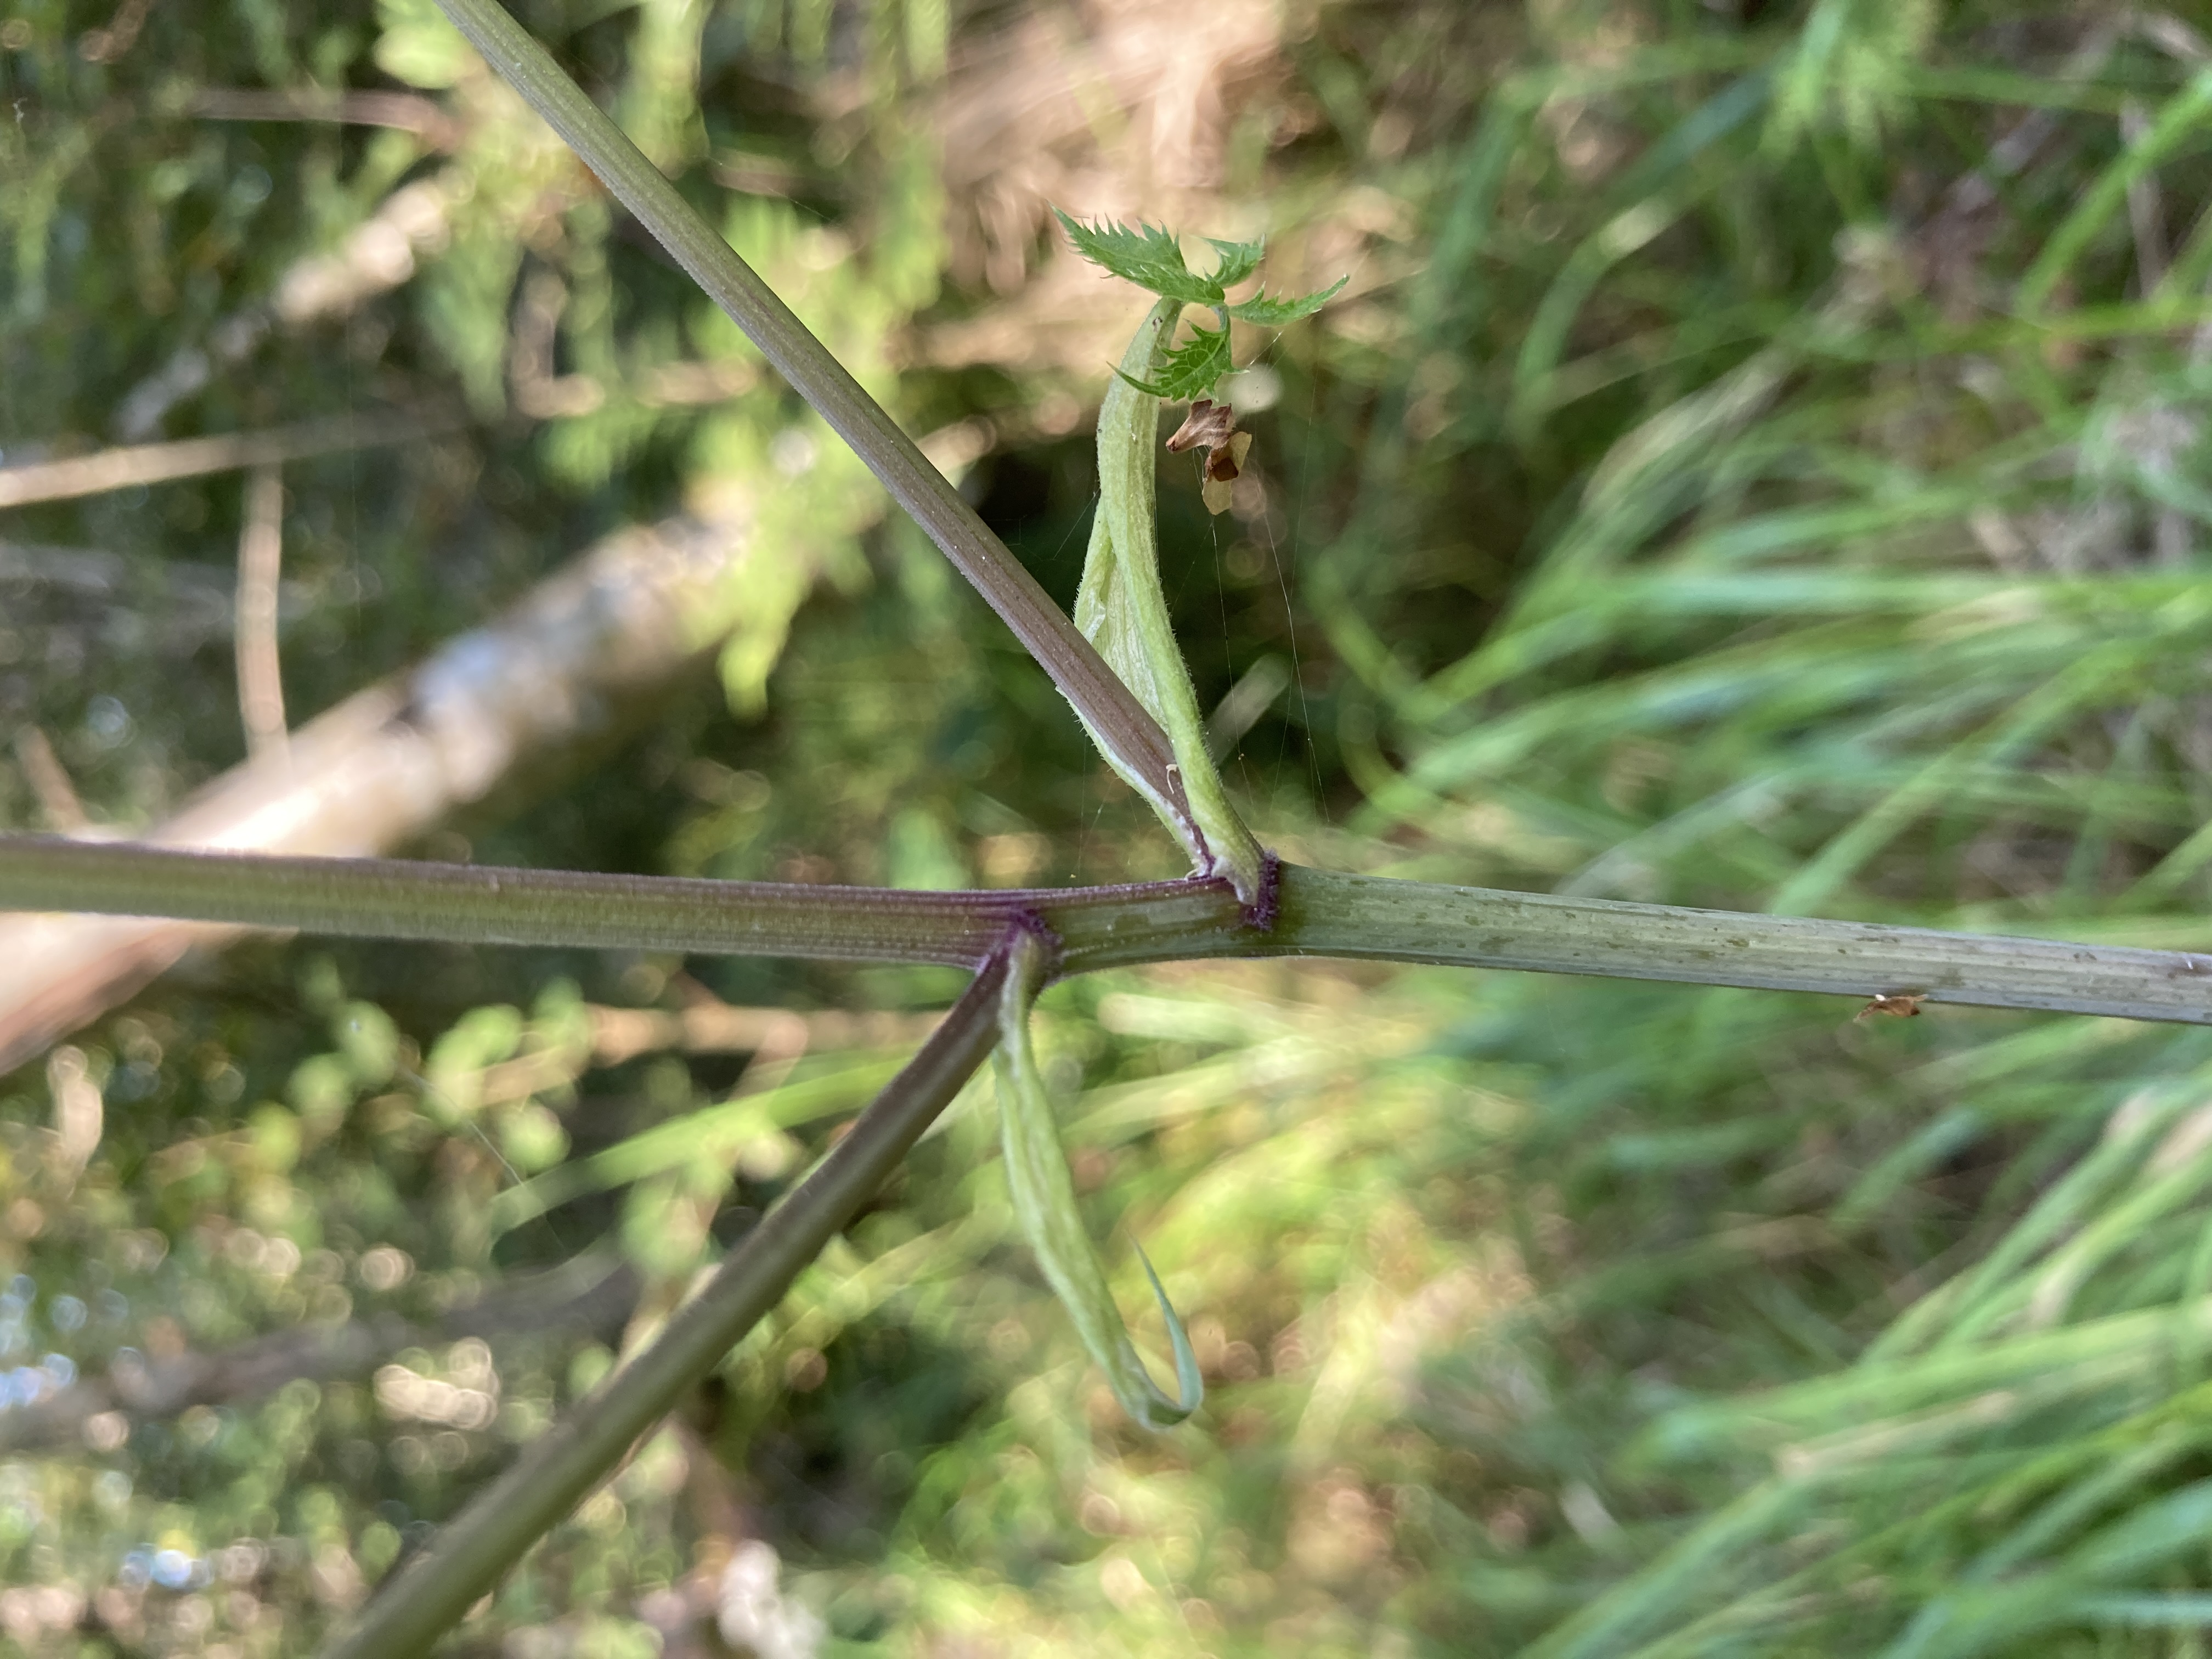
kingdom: Plantae
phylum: Tracheophyta
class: Magnoliopsida
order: Apiales
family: Apiaceae
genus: Angelica
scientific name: Angelica sylvestris
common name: Angelik
